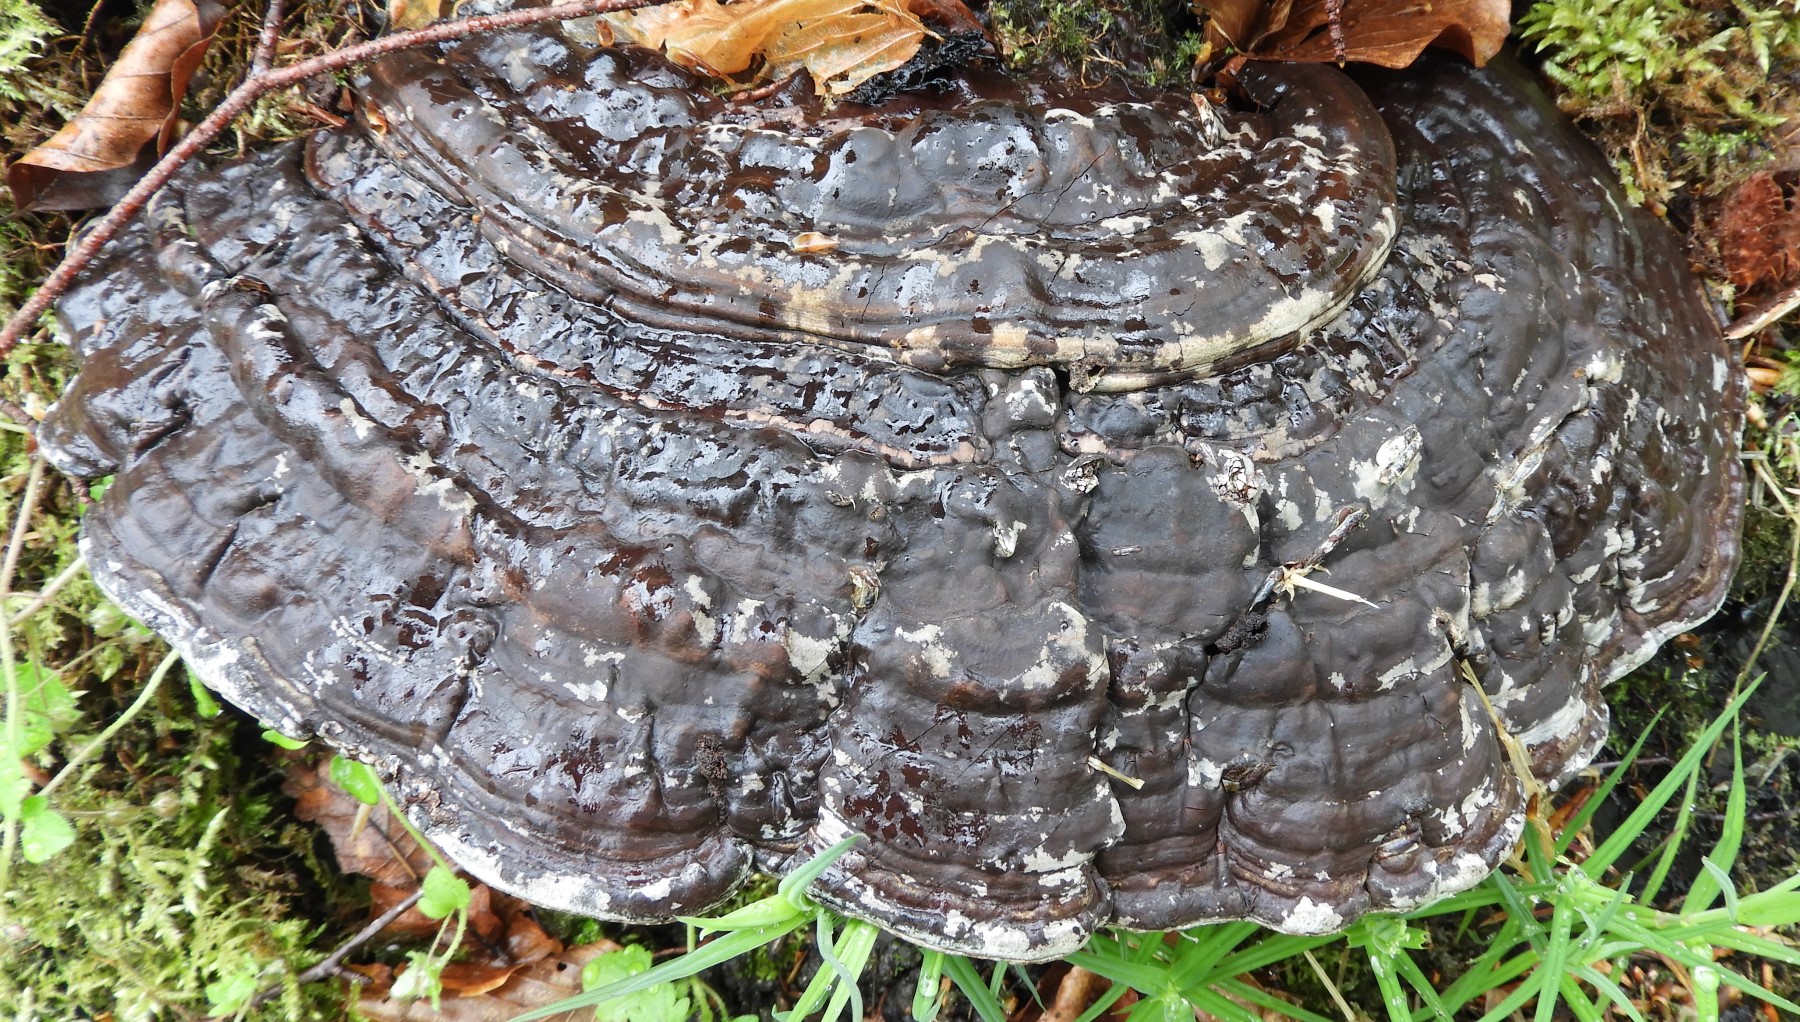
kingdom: Fungi
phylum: Basidiomycota
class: Agaricomycetes
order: Polyporales
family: Polyporaceae
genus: Ganoderma
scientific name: Ganoderma applanatum
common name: flad lakporesvamp
